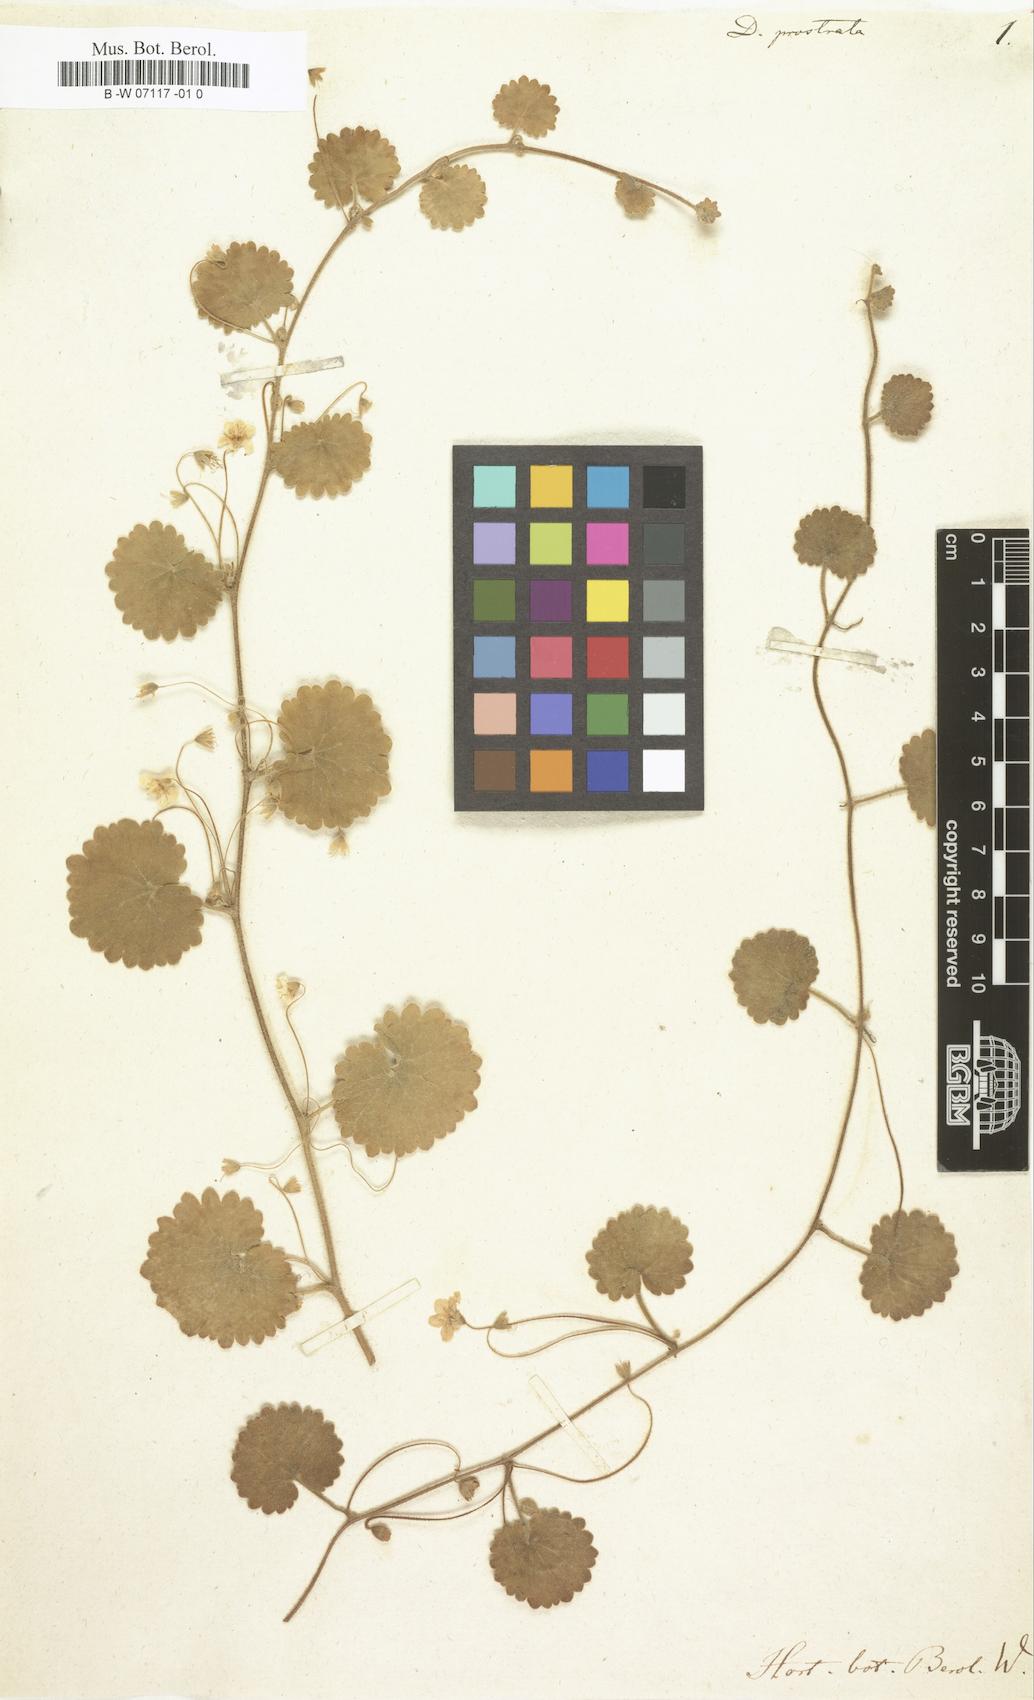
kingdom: Plantae
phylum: Tracheophyta
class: Magnoliopsida
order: Lamiales
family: Plantaginaceae
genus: Sibthorpia
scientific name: Sibthorpia peregrina
